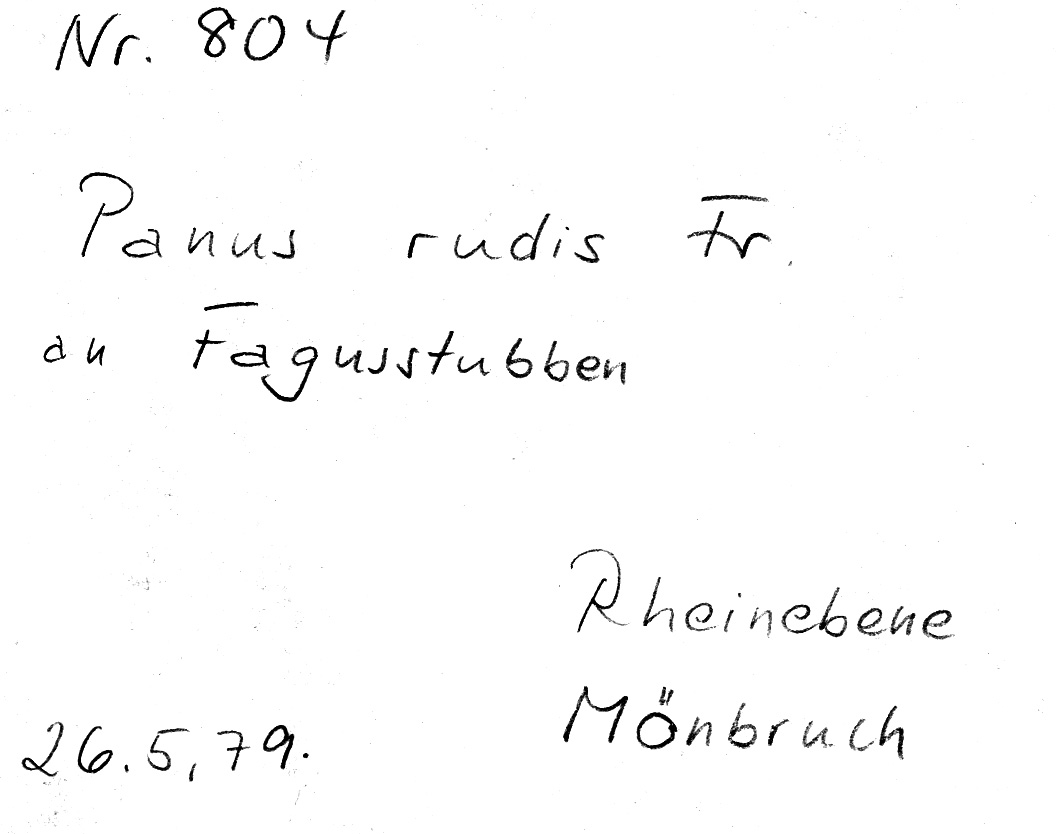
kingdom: Fungi
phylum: Basidiomycota
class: Agaricomycetes
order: Polyporales
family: Panaceae
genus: Panus
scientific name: Panus neostrigosus
